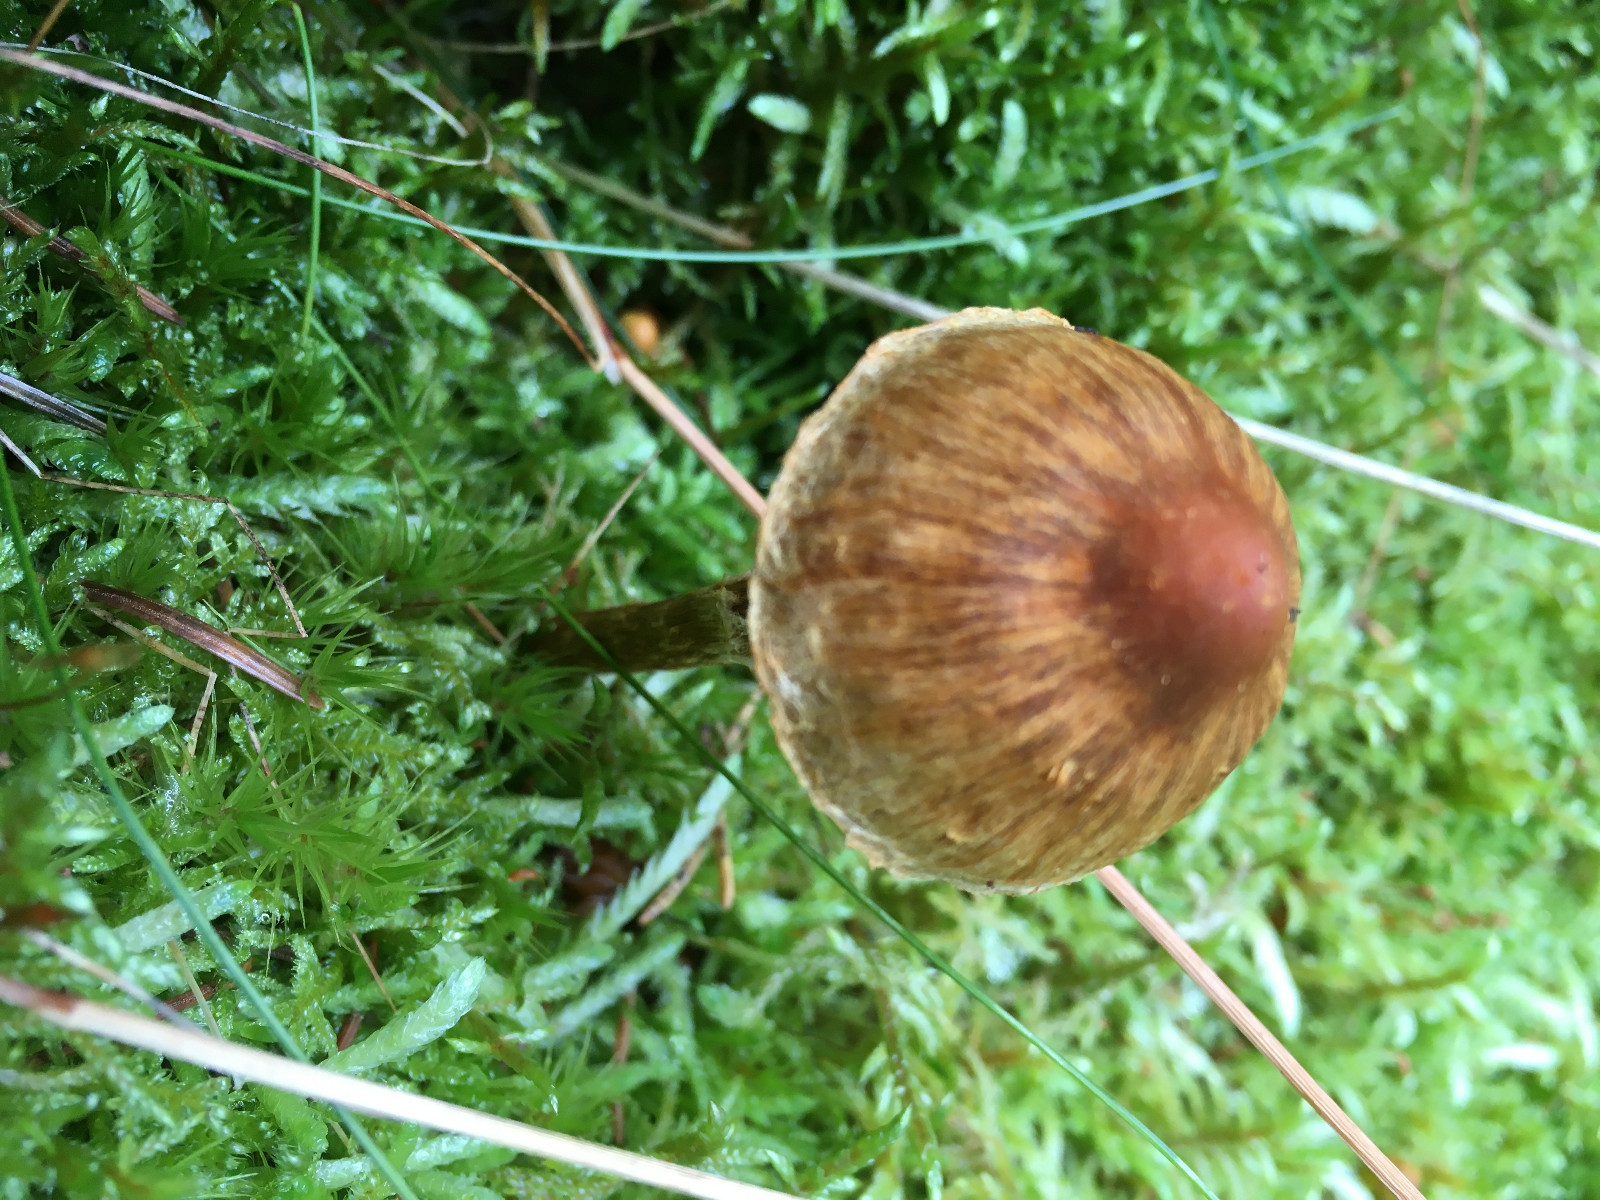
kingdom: Fungi
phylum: Basidiomycota
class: Agaricomycetes
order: Agaricales
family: Cortinariaceae
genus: Cortinarius
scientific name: Cortinarius
